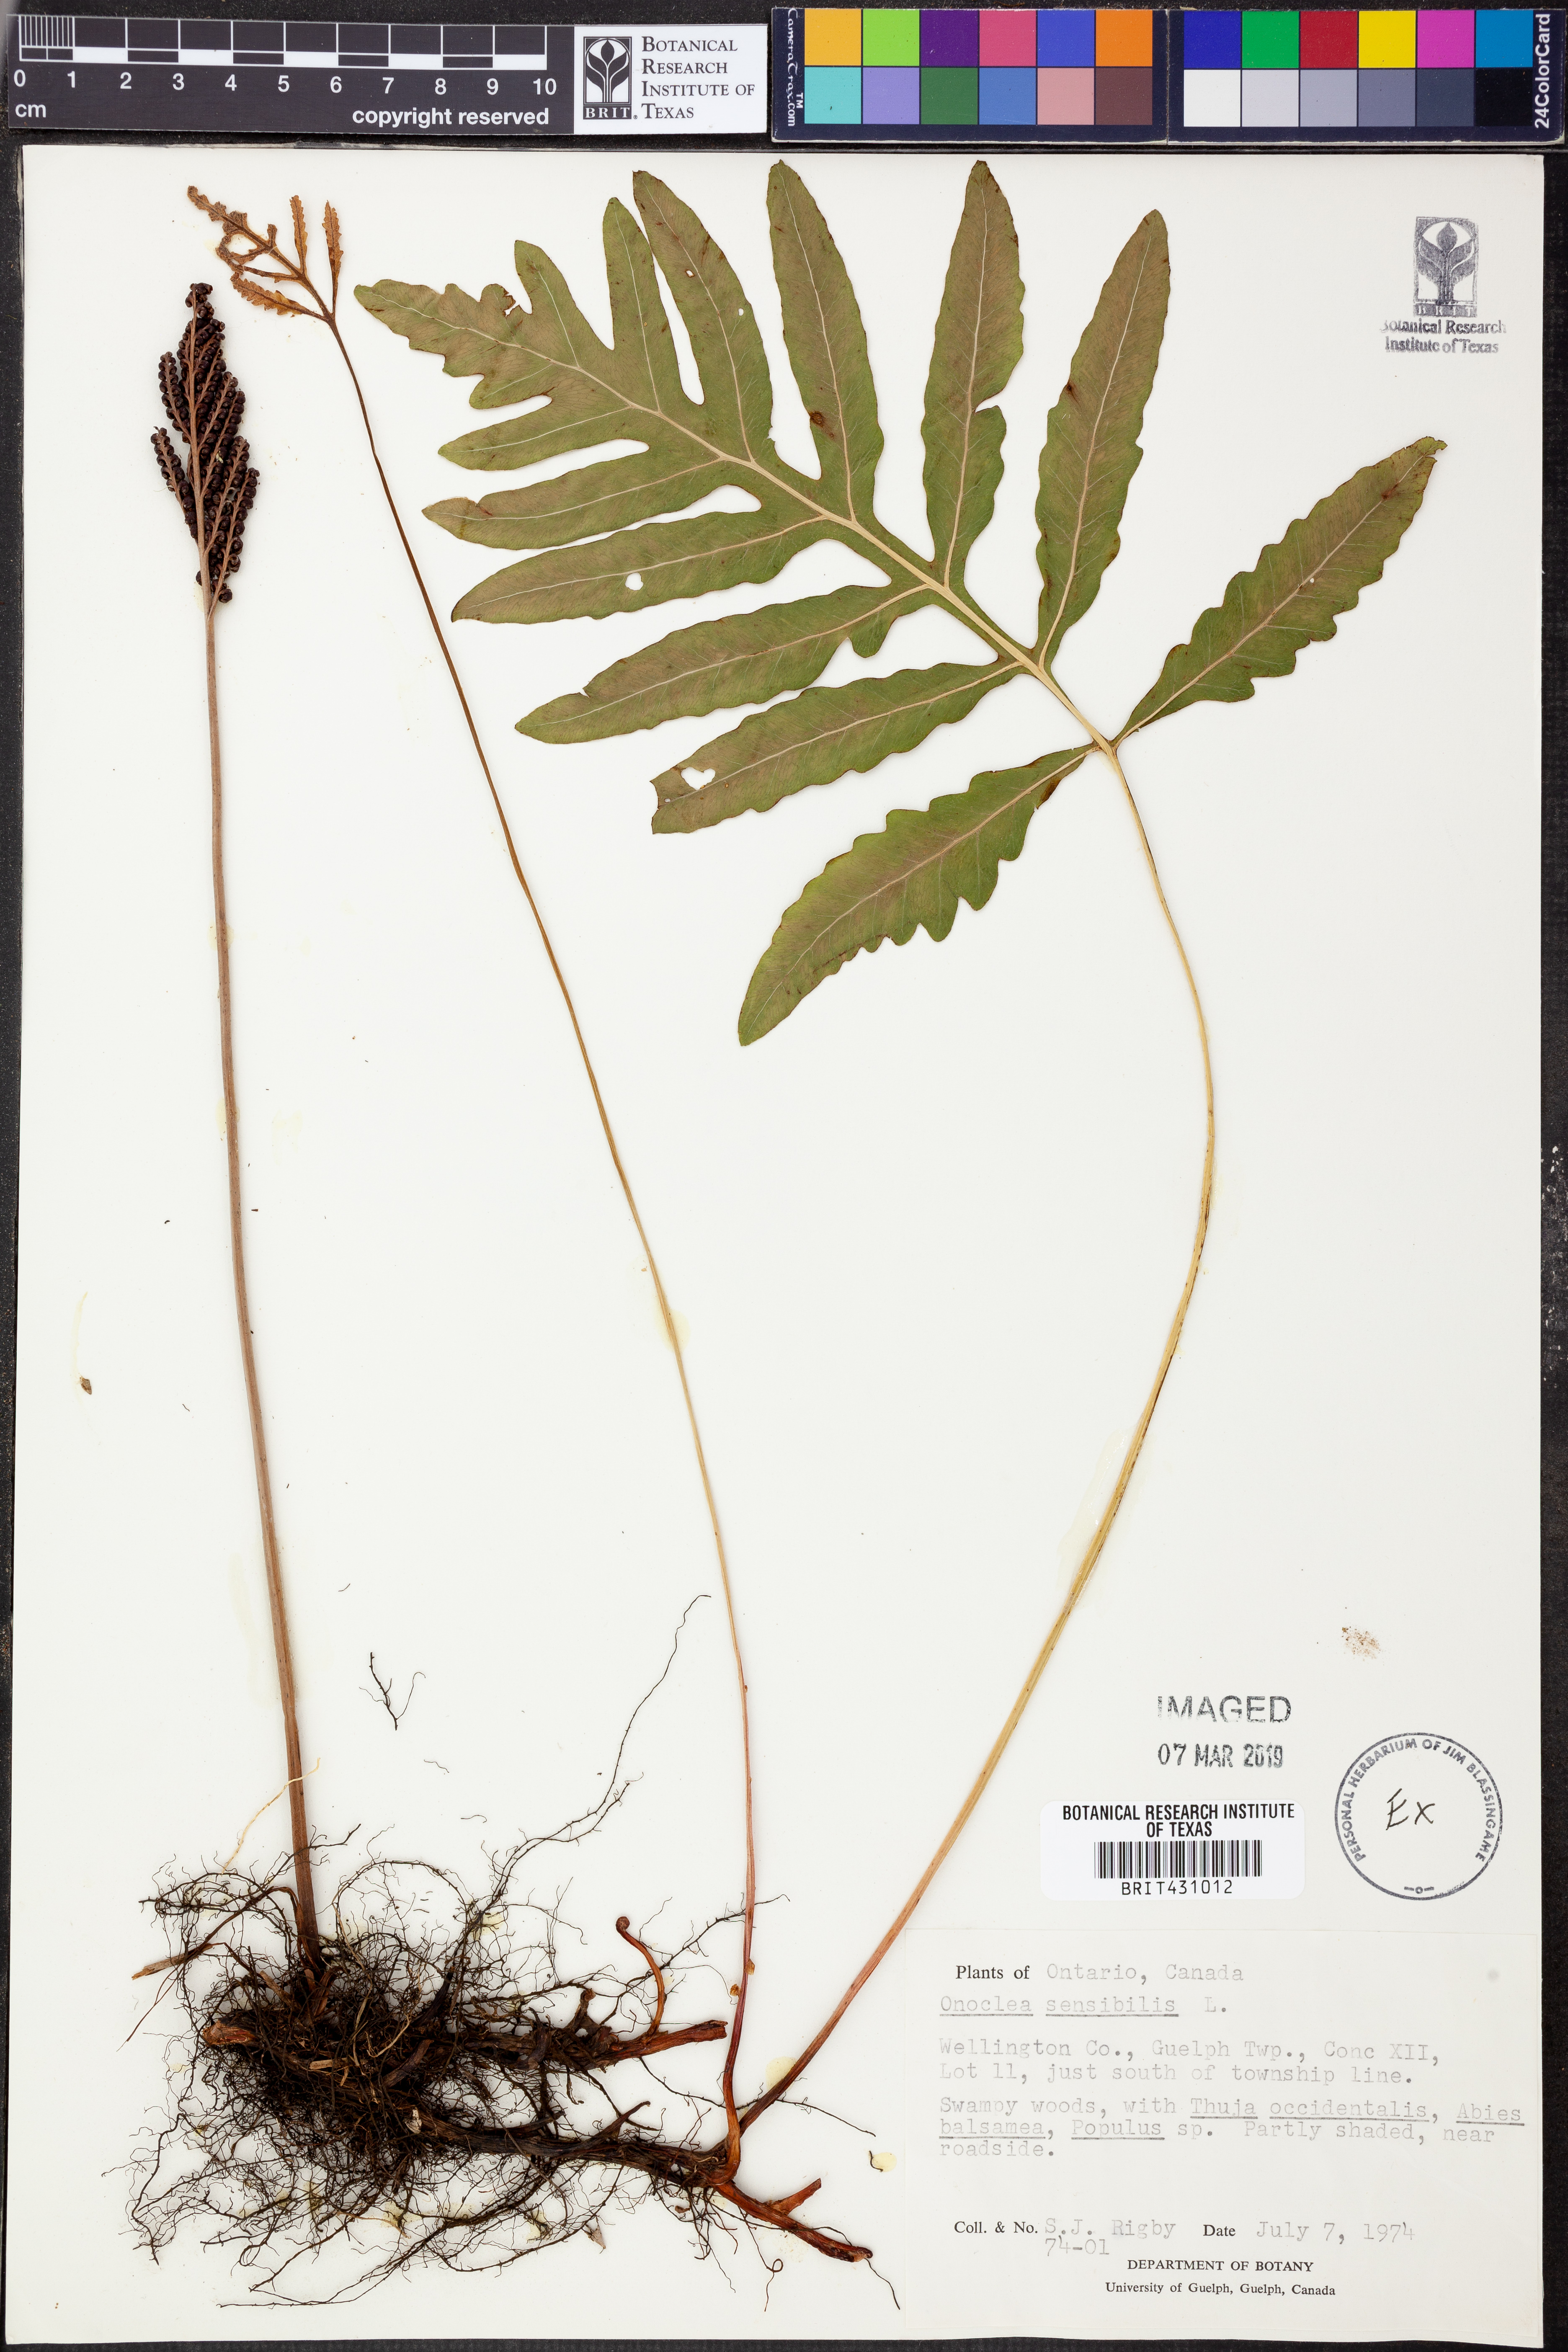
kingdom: Plantae
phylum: Tracheophyta
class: Polypodiopsida
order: Polypodiales
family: Onocleaceae
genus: Onoclea
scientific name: Onoclea sensibilis
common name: Sensitive fern
